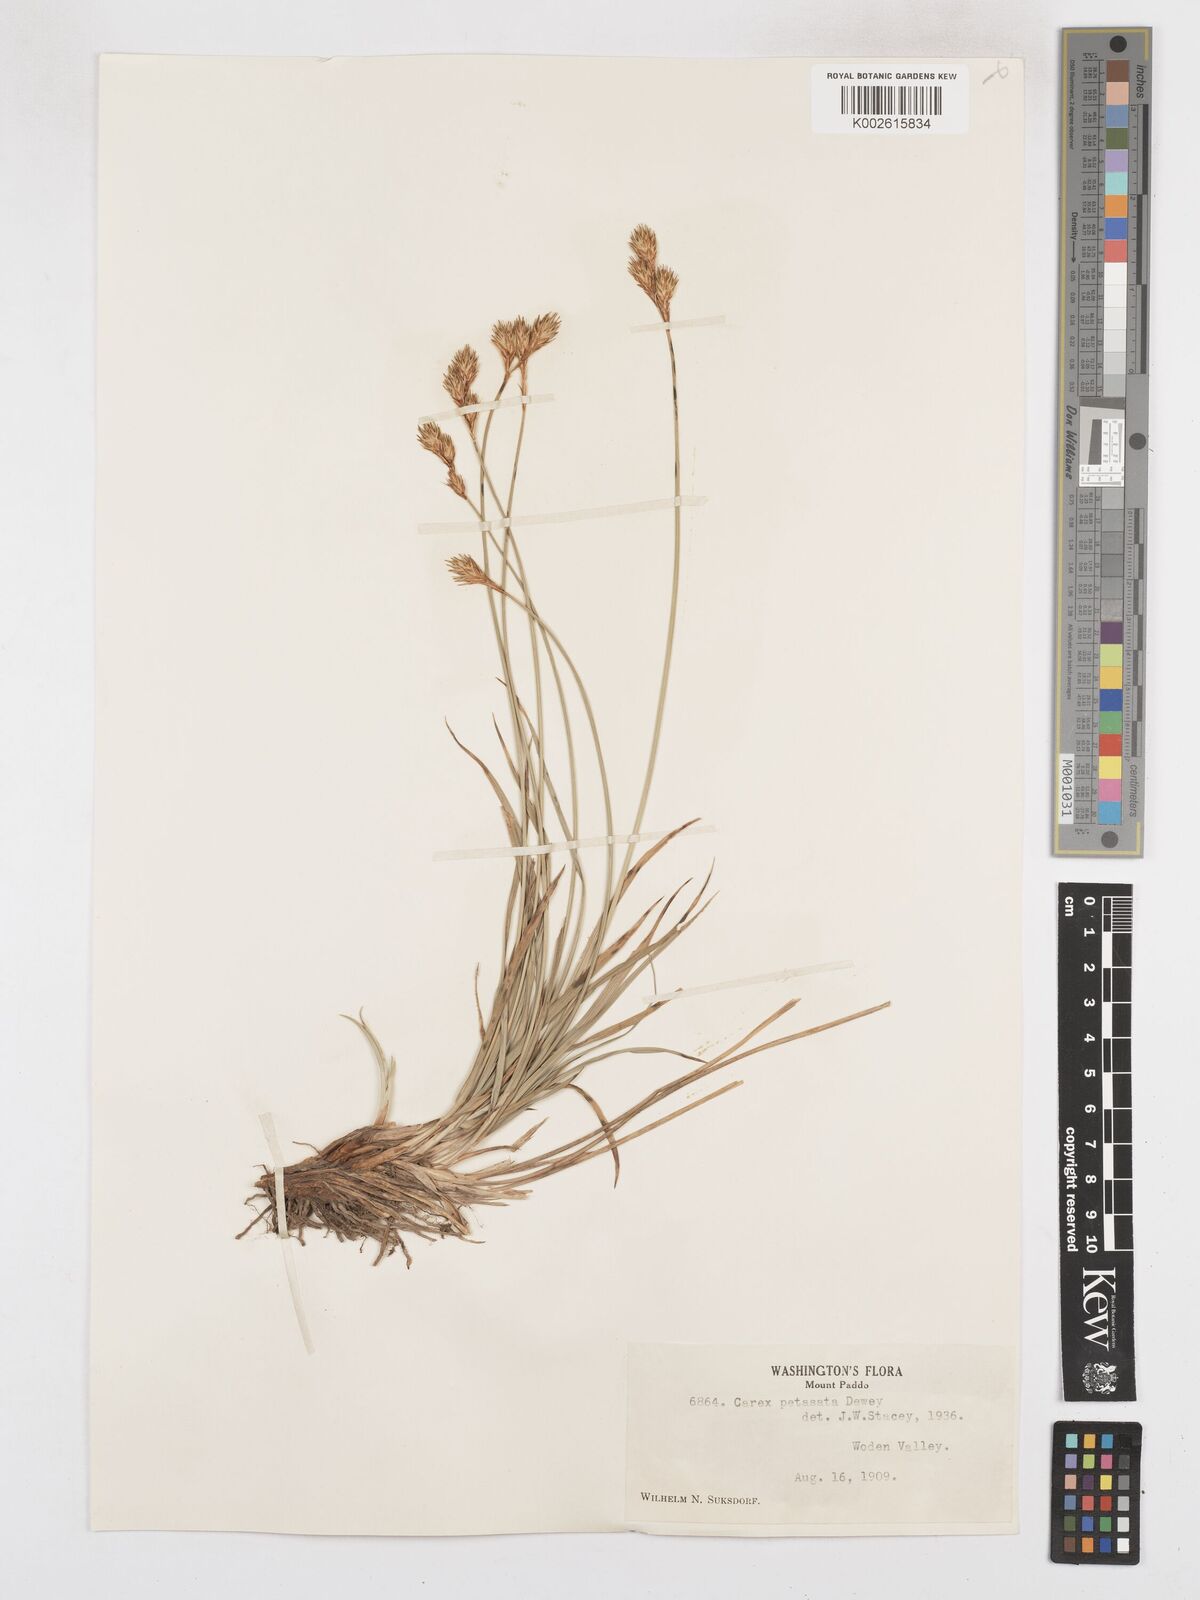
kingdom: Plantae
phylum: Tracheophyta
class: Liliopsida
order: Poales
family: Cyperaceae
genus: Carex
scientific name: Carex petasata
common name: Liddon's sedge
